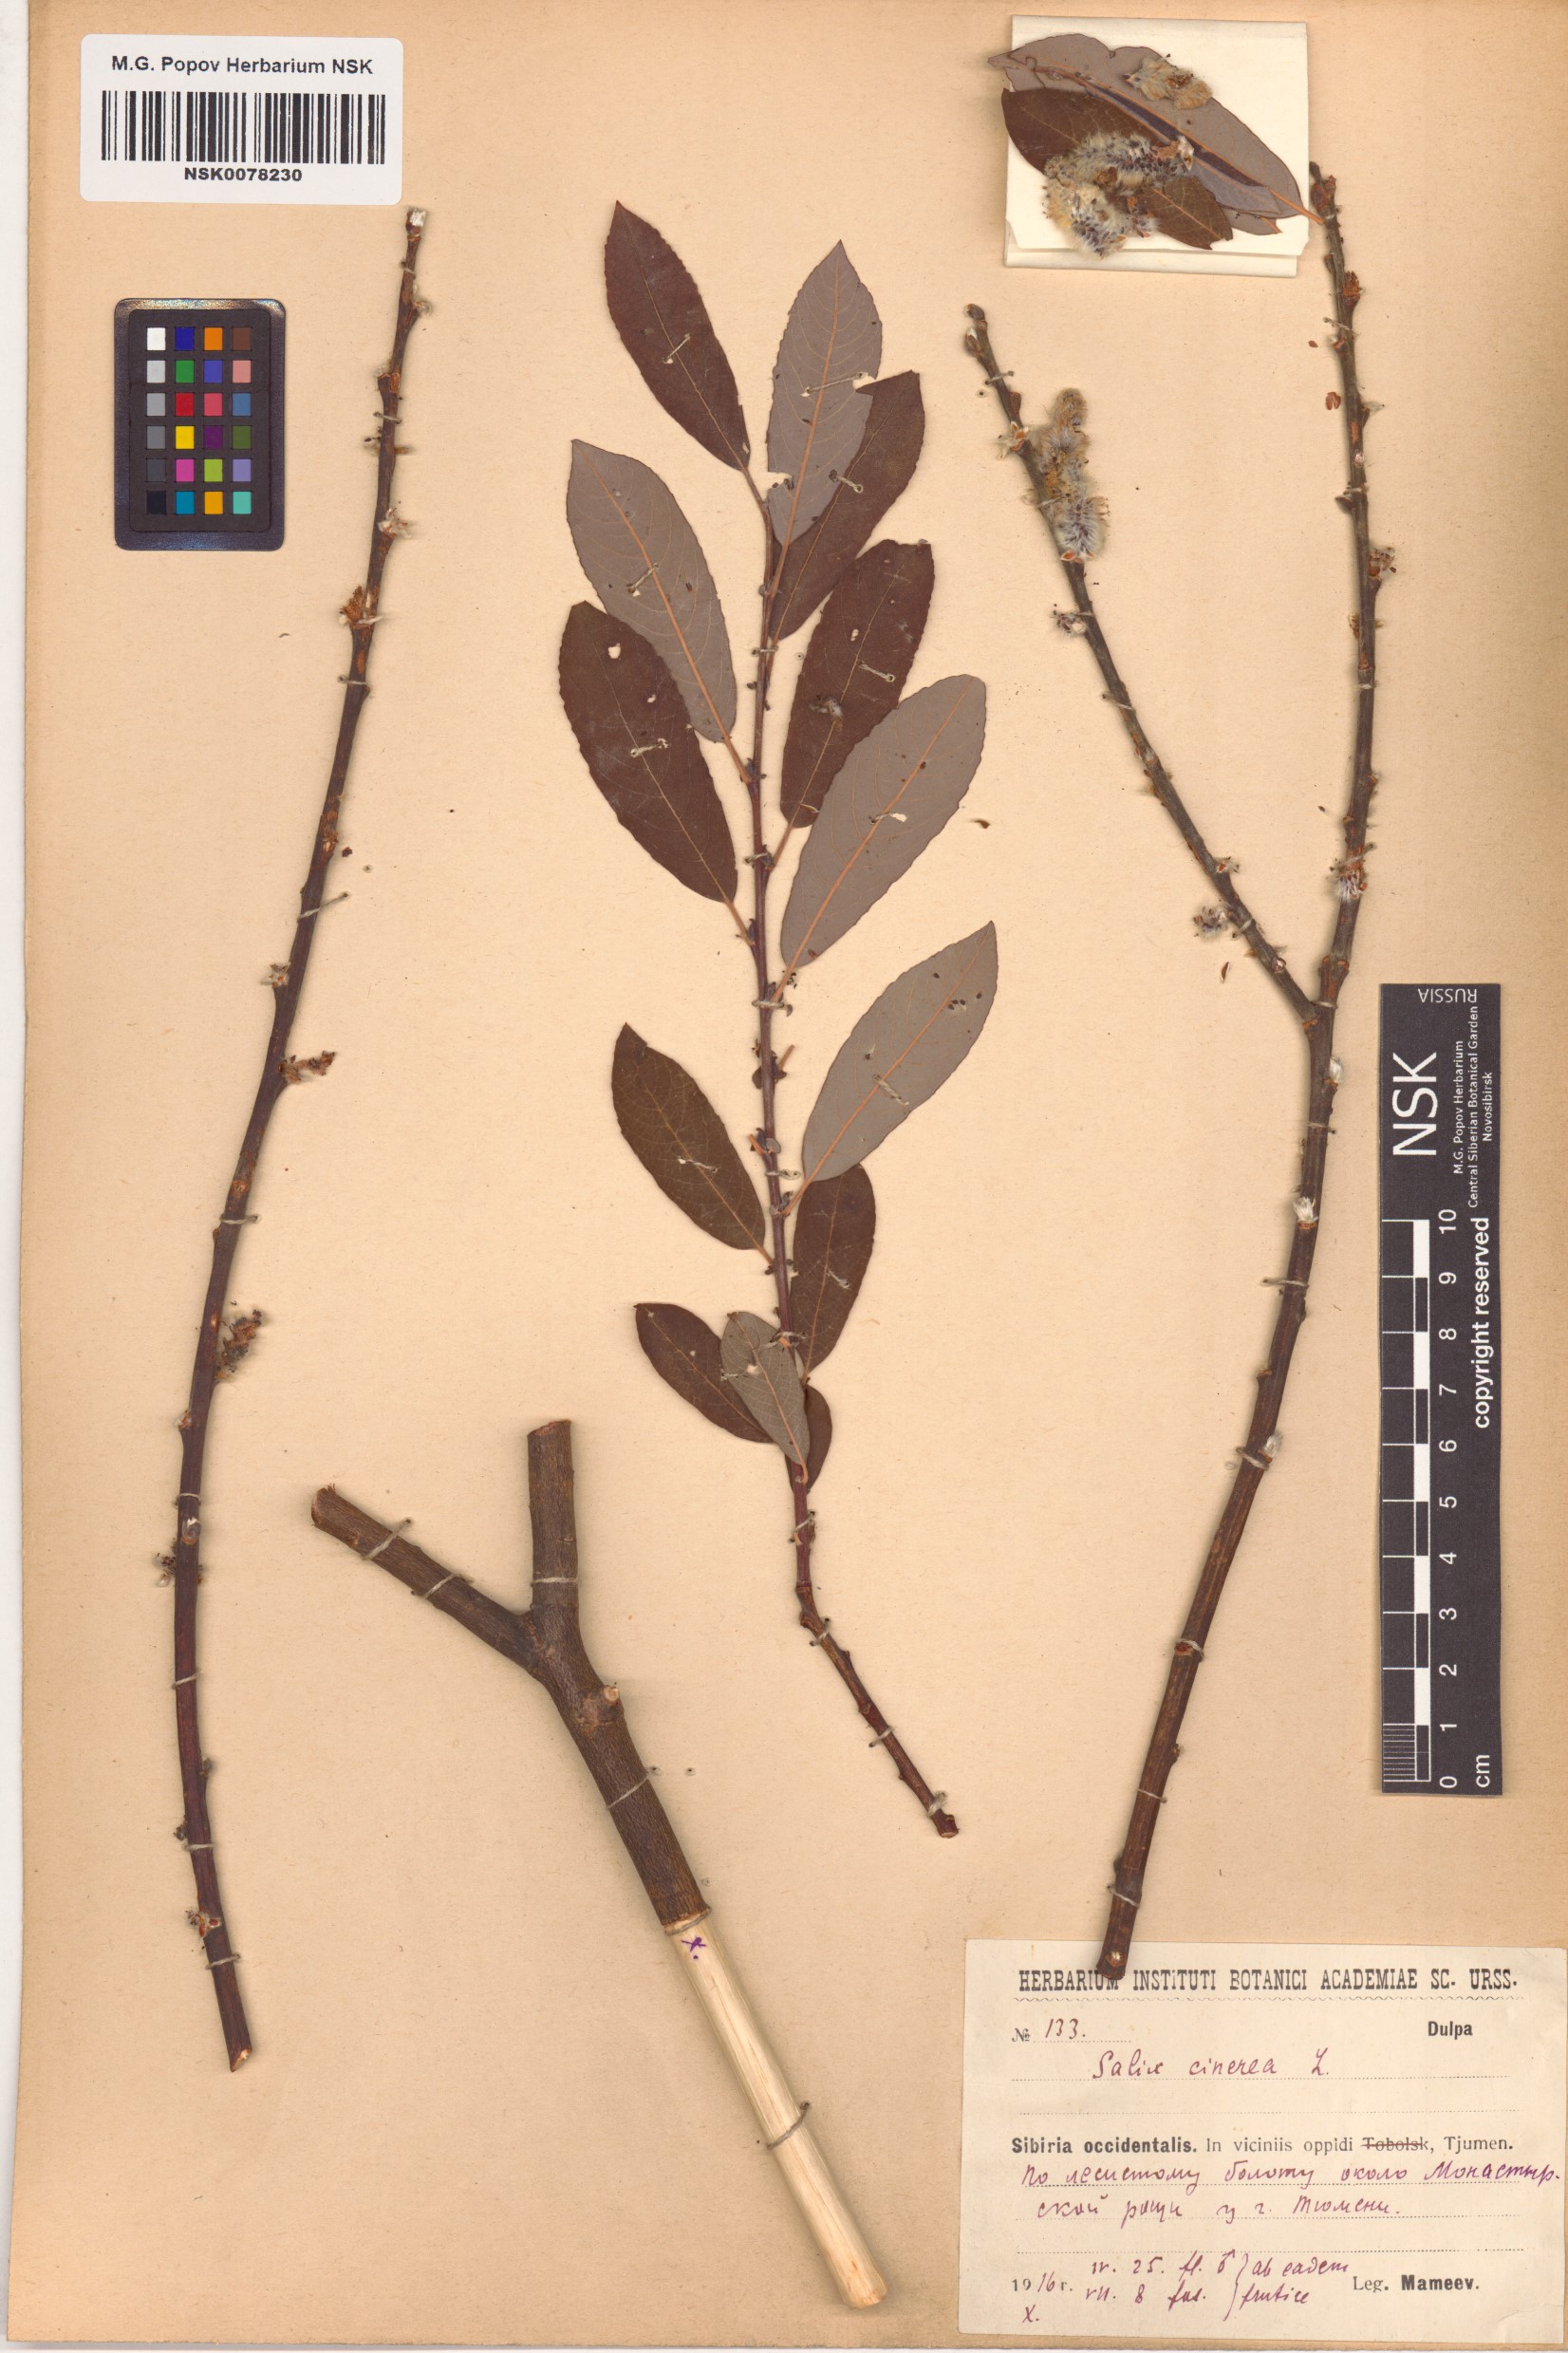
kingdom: Plantae
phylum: Tracheophyta
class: Magnoliopsida
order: Malpighiales
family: Salicaceae
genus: Salix
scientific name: Salix cinerea
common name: Common sallow
